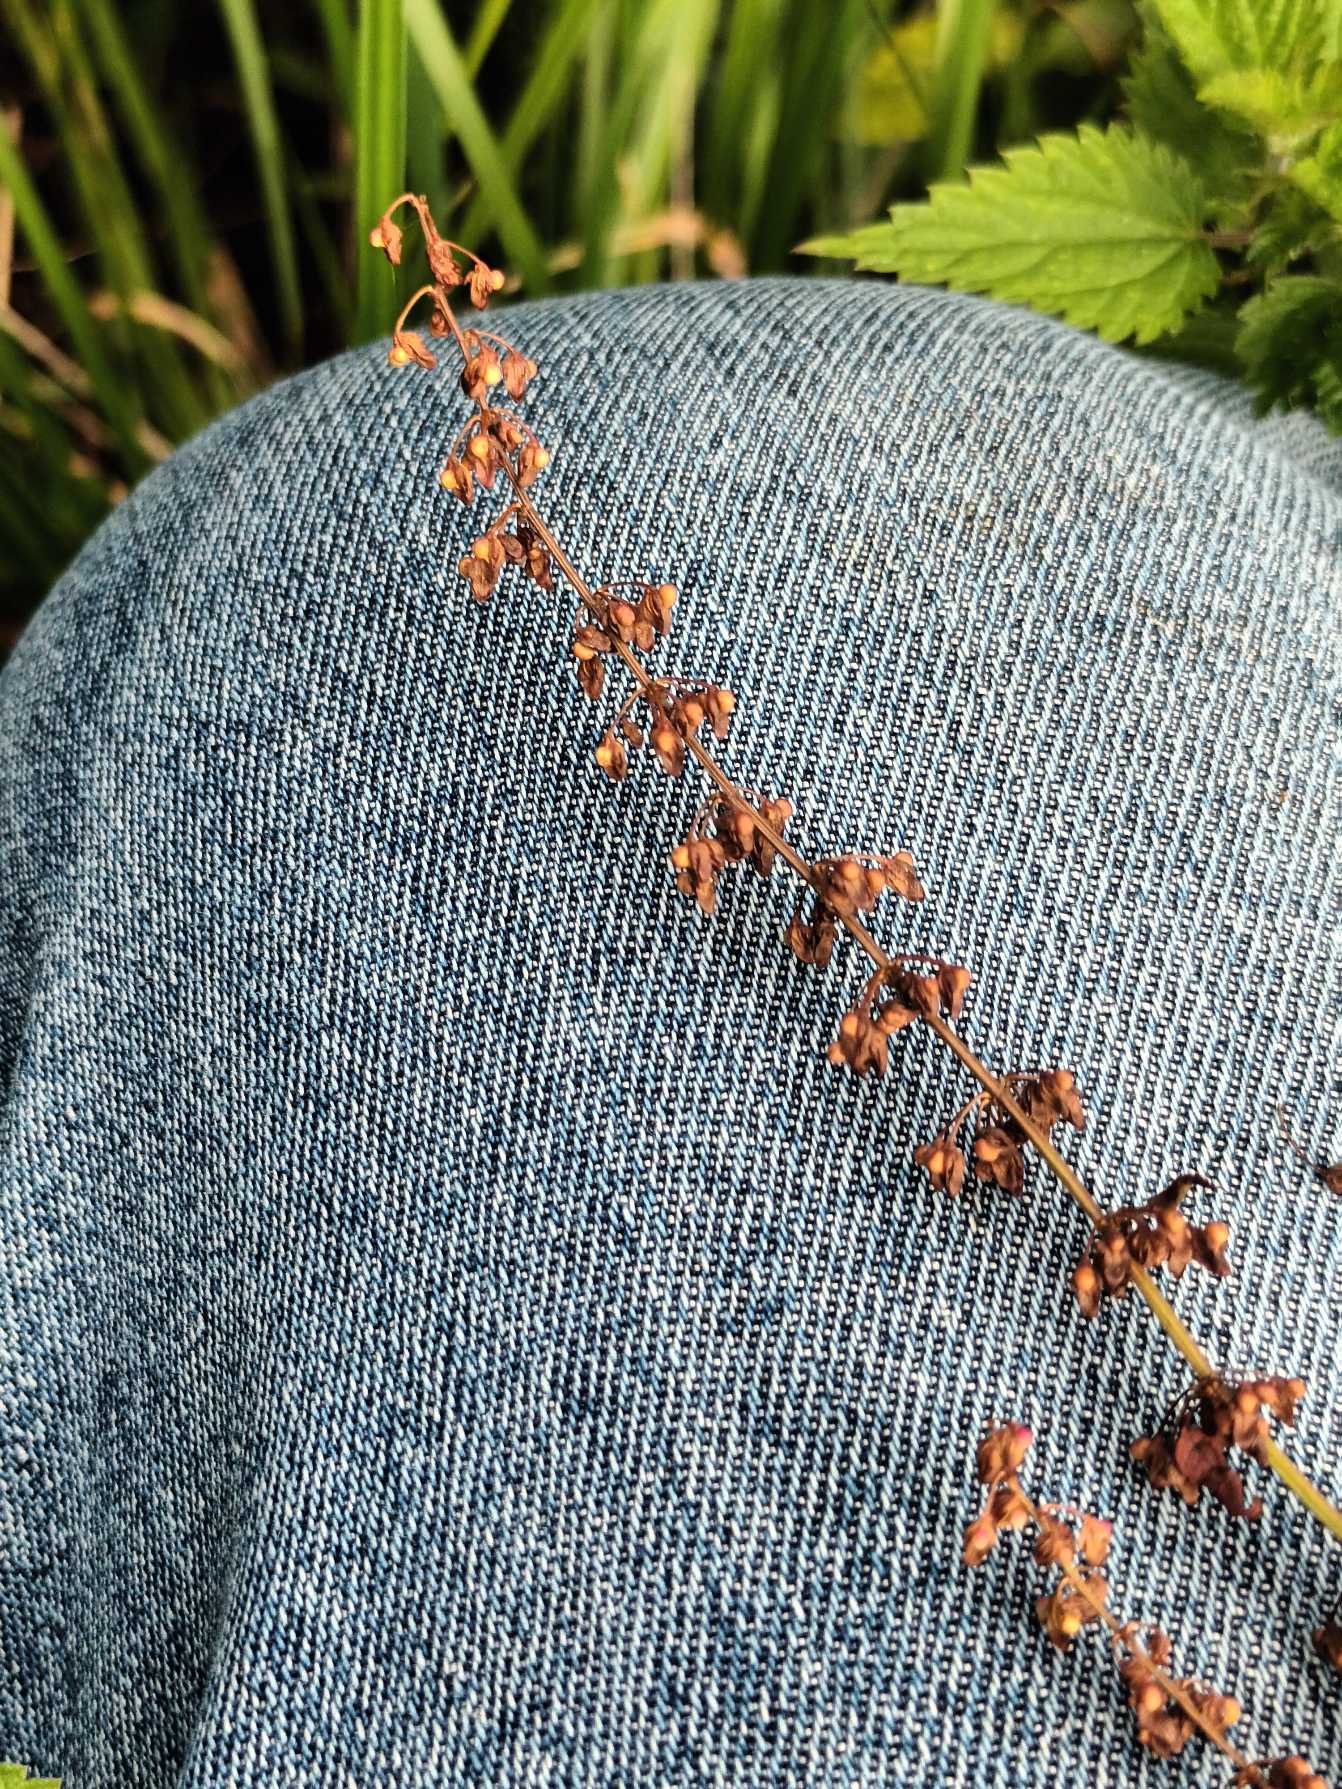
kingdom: Plantae
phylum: Tracheophyta
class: Magnoliopsida
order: Caryophyllales
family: Polygonaceae
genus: Rumex
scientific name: Rumex sanguineus
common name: Skov-skræppe
